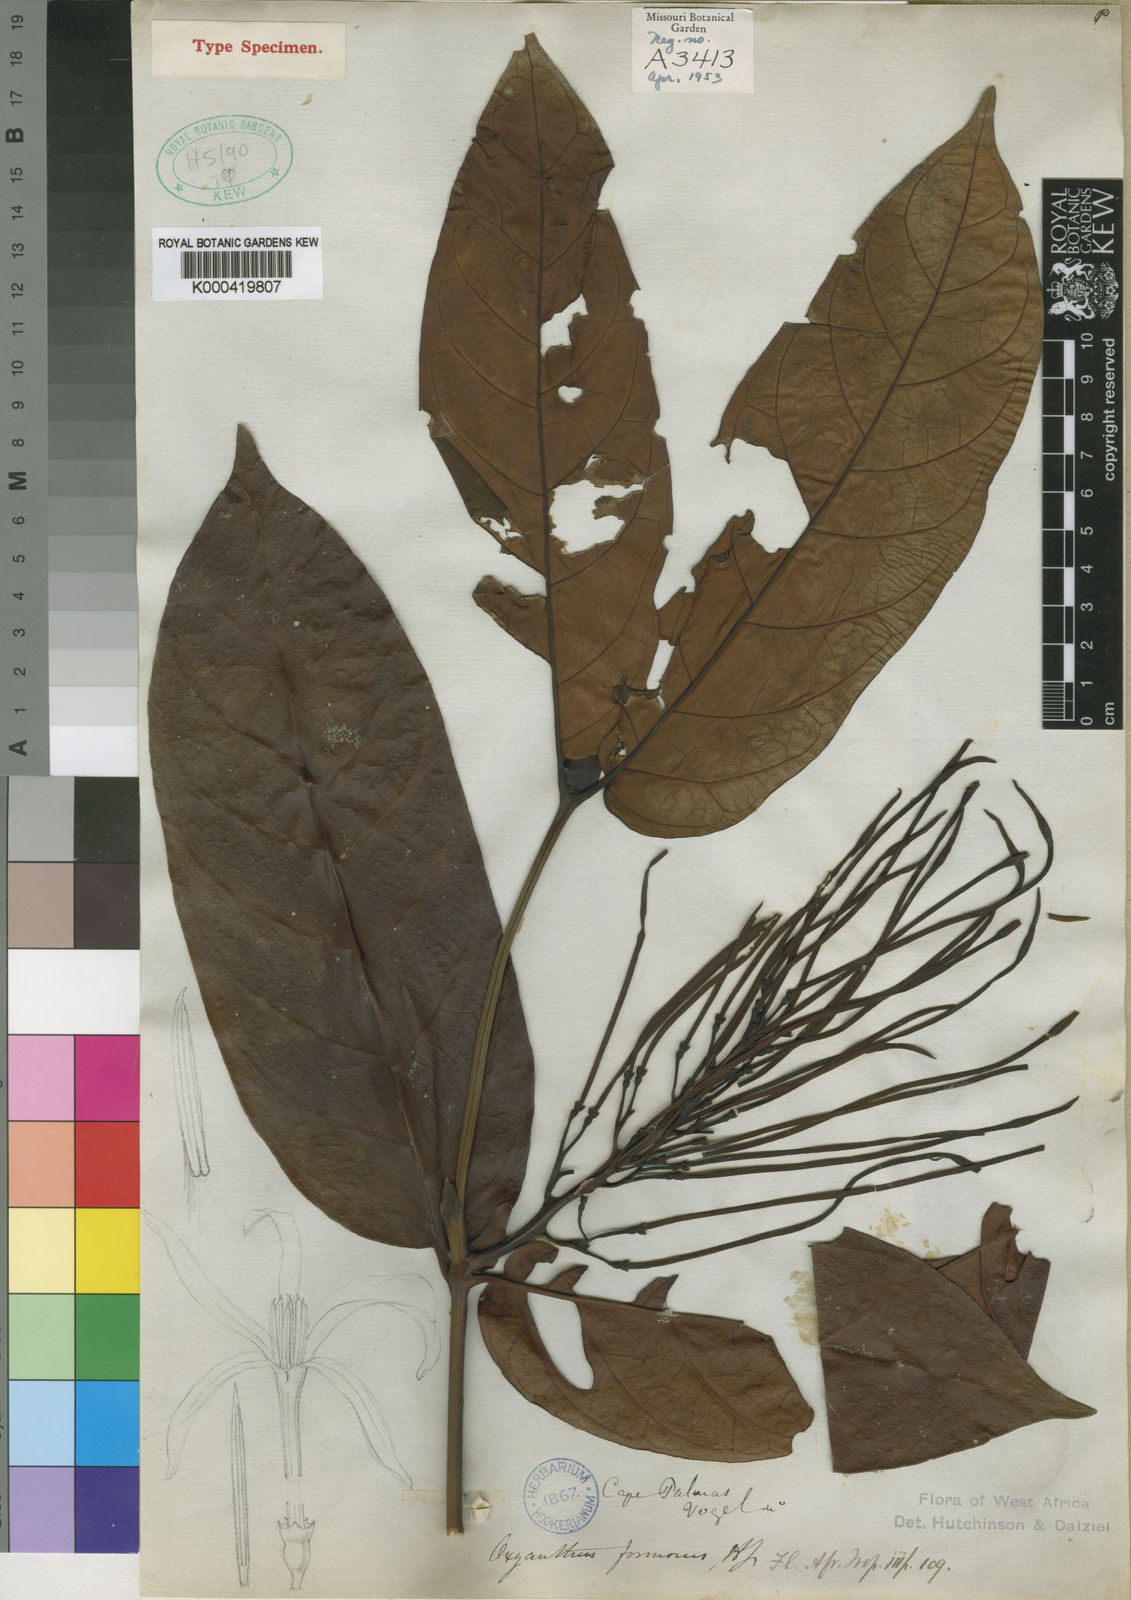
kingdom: Plantae
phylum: Tracheophyta
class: Magnoliopsida
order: Gentianales
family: Rubiaceae
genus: Oxyanthus
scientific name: Oxyanthus formosus
